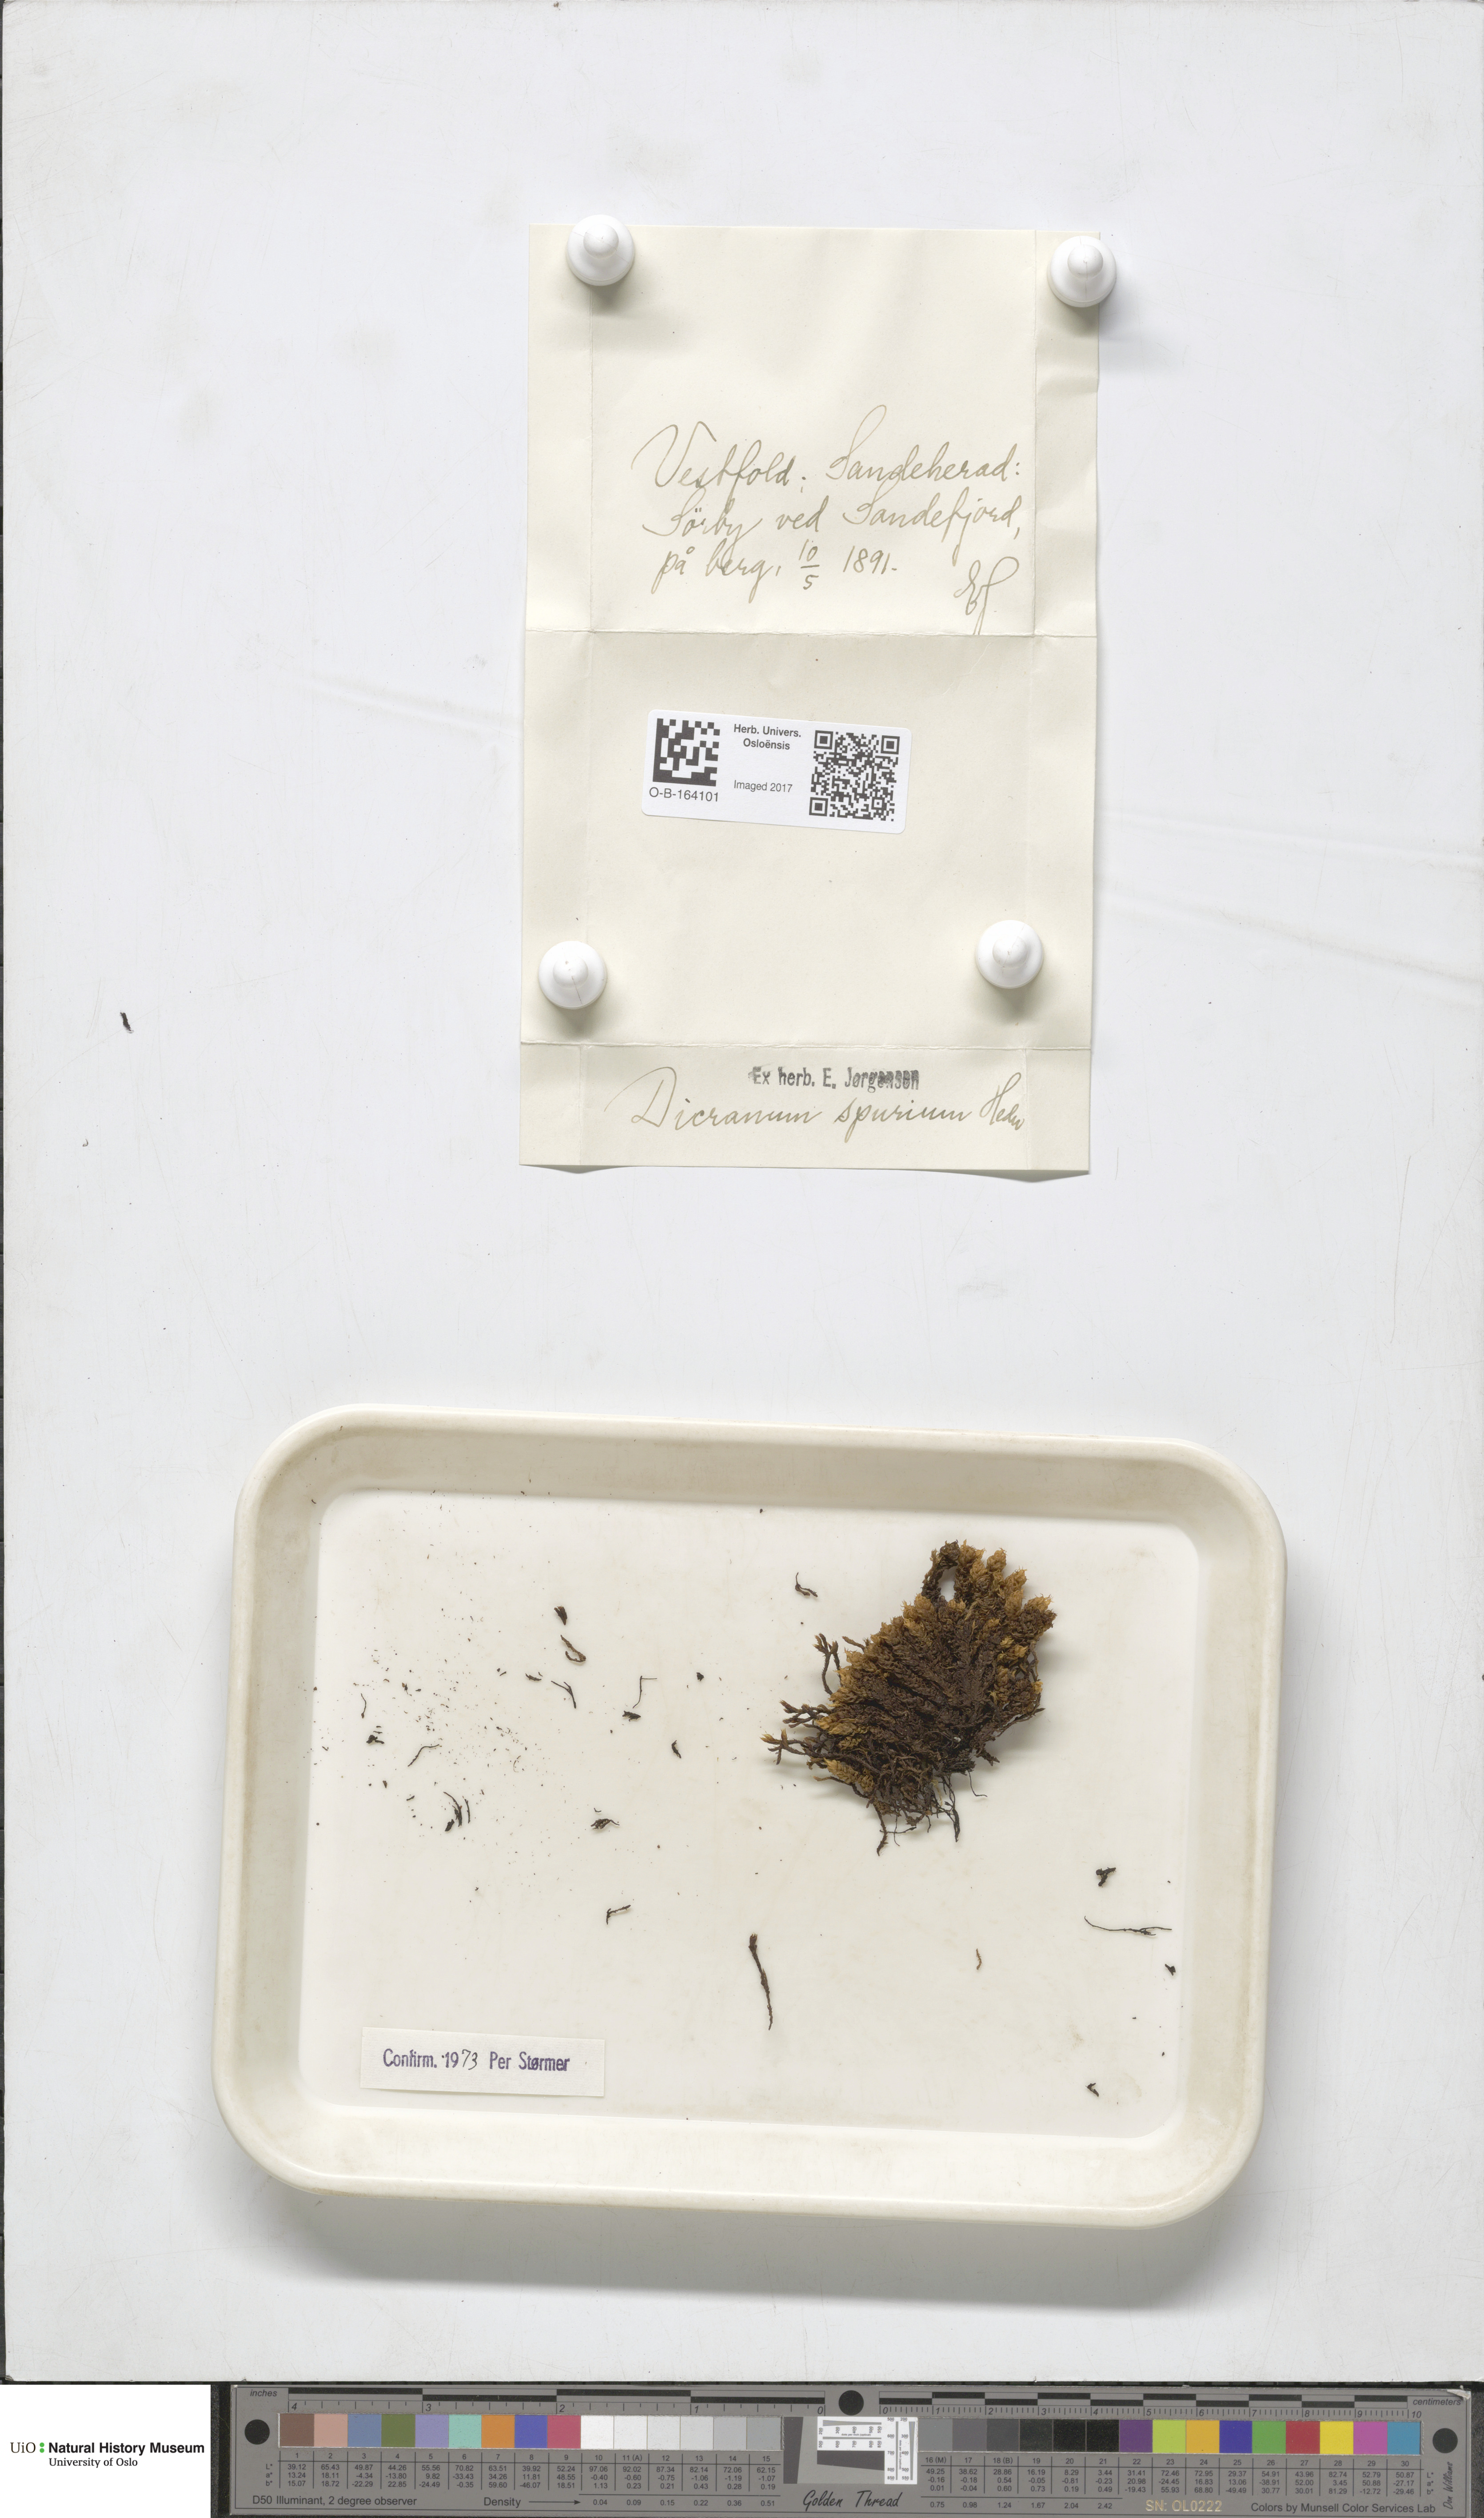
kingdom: Plantae
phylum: Bryophyta
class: Bryopsida
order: Dicranales
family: Dicranaceae
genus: Dicranum
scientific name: Dicranum spurium
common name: Spurred broom moss
